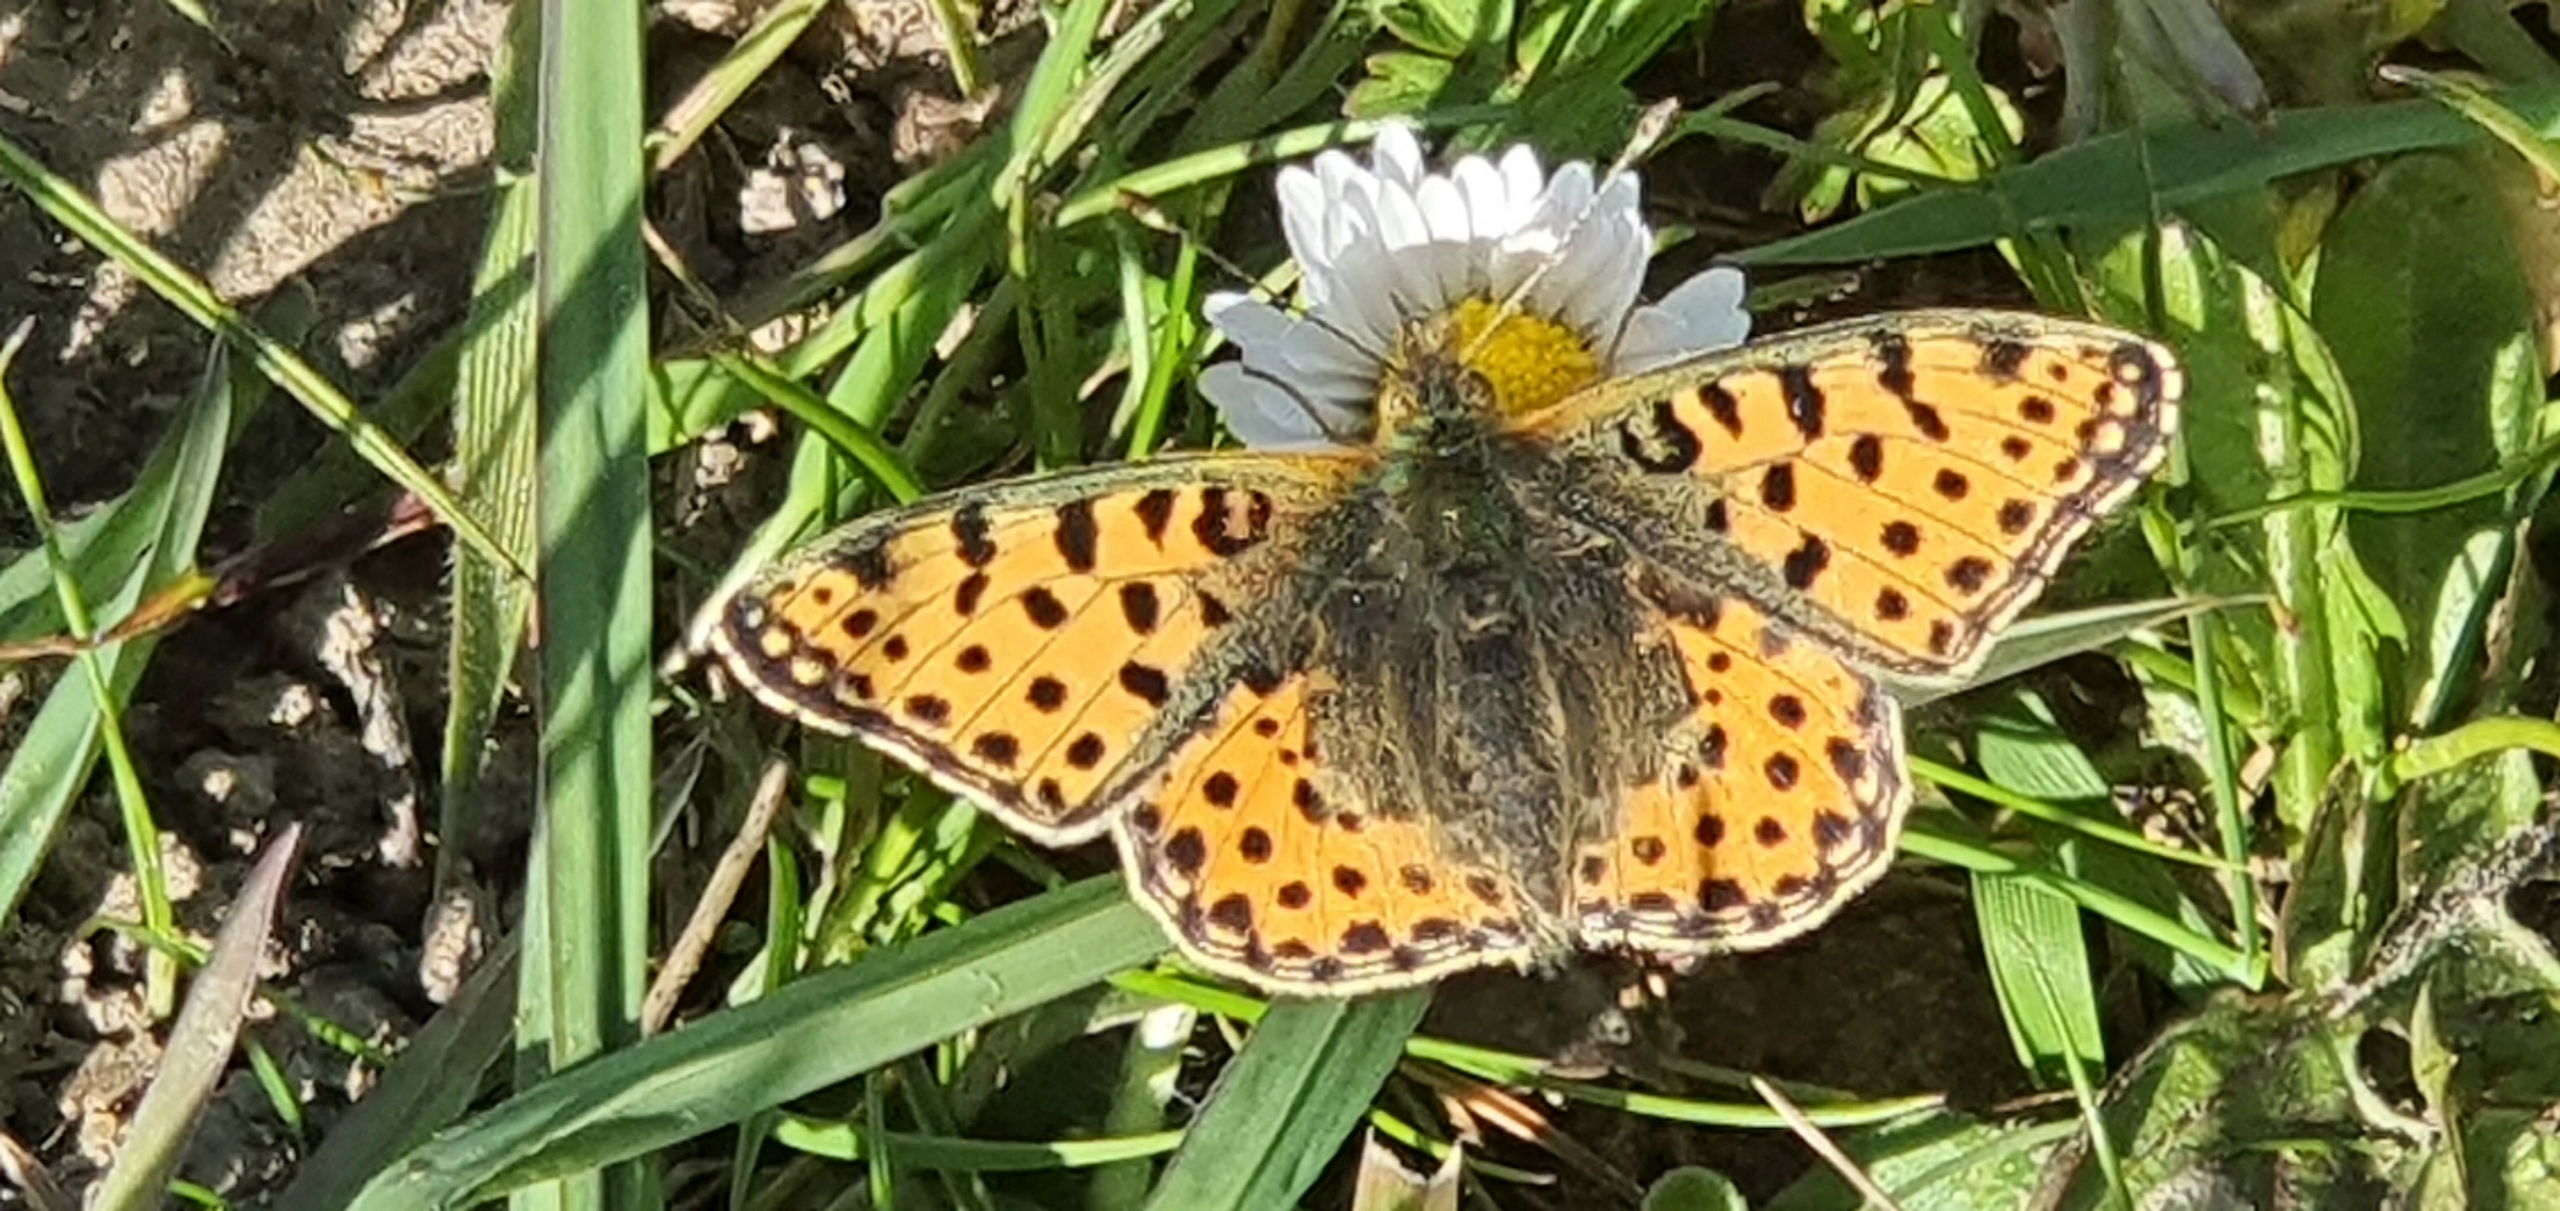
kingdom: Animalia
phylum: Arthropoda
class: Insecta
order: Lepidoptera
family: Nymphalidae
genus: Issoria
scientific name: Issoria lathonia
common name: Storplettet perlemorsommerfugl
